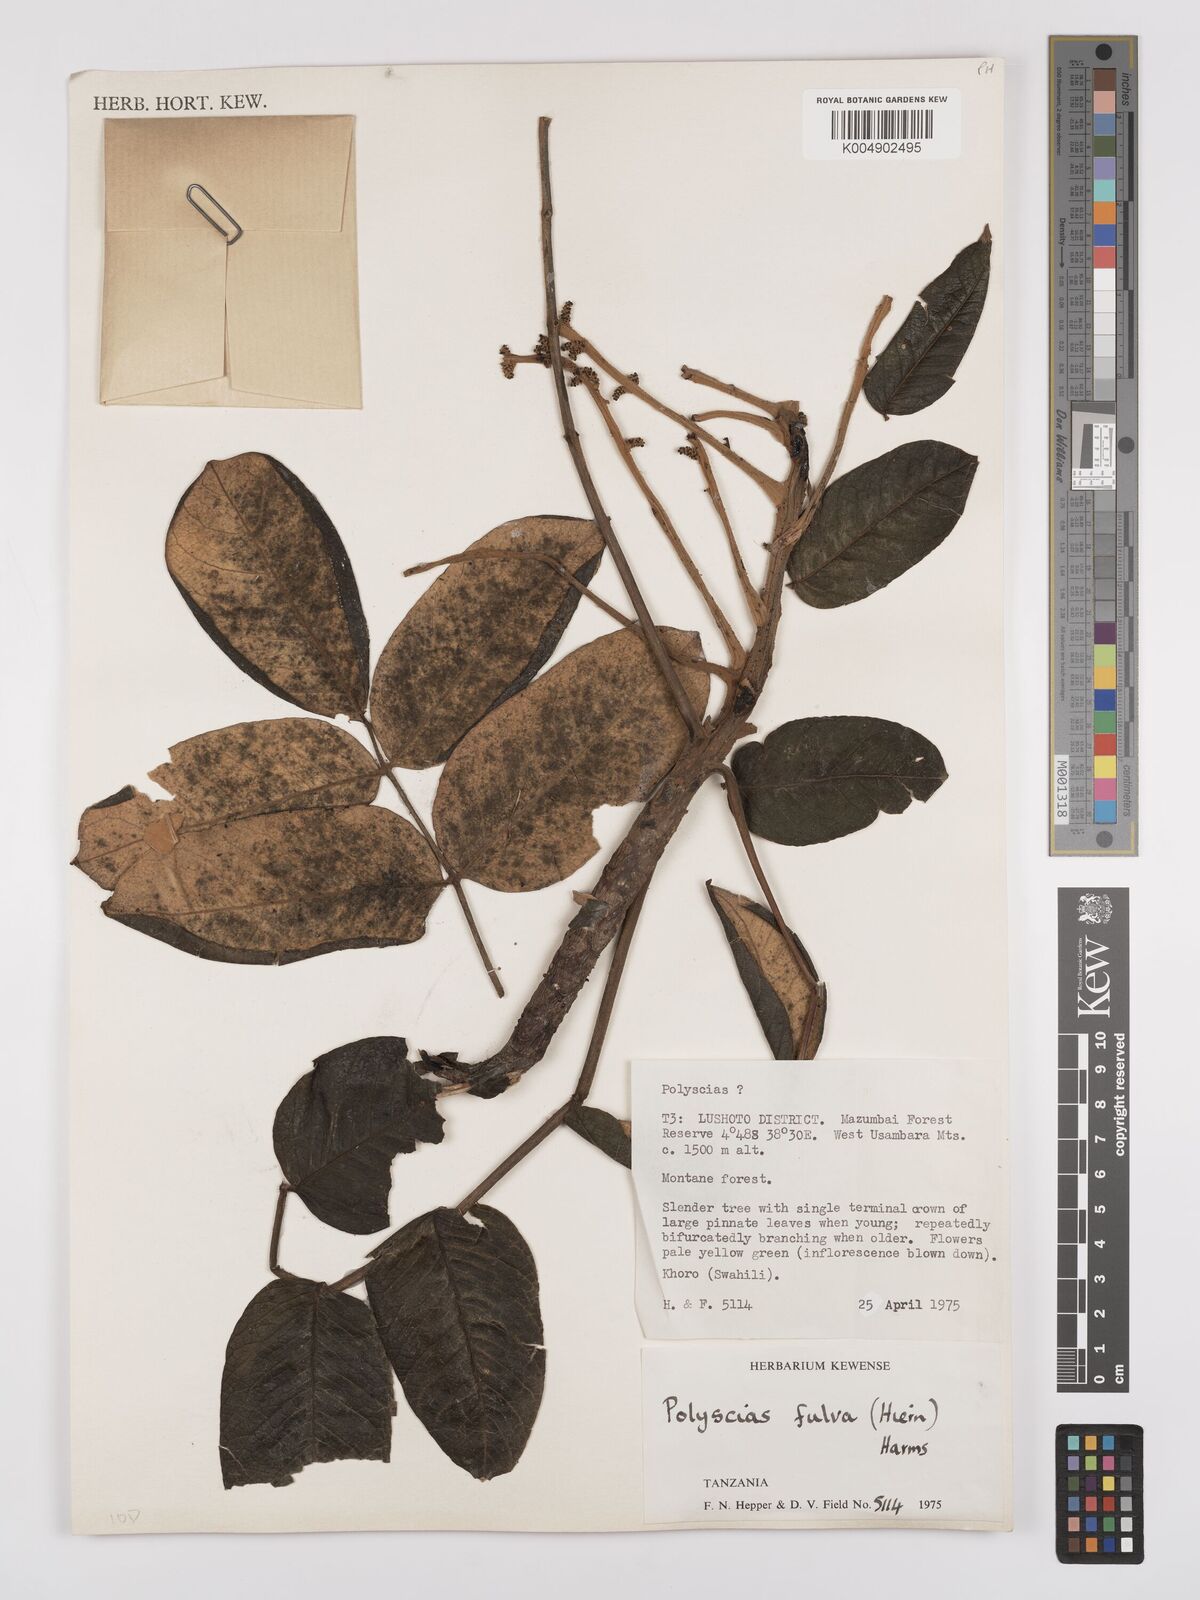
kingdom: Plantae
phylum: Tracheophyta
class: Magnoliopsida
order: Apiales
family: Araliaceae
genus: Polyscias
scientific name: Polyscias fulva
